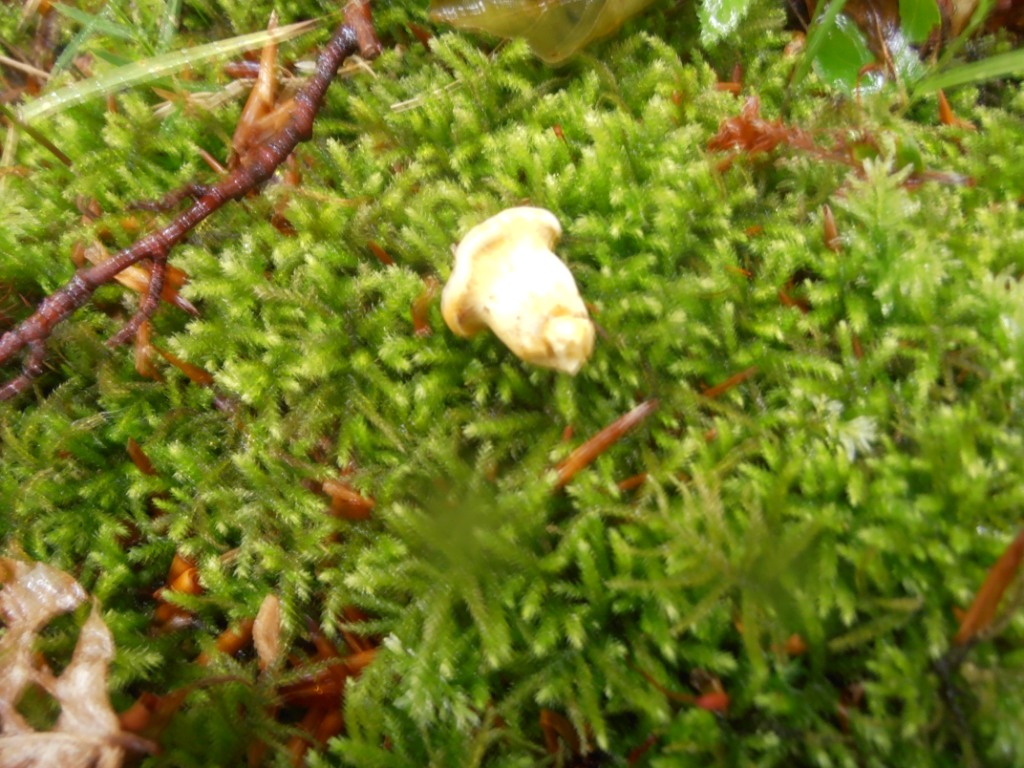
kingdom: Fungi
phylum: Basidiomycota
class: Agaricomycetes
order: Cantharellales
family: Hydnaceae
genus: Cantharellus
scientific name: Cantharellus cibarius
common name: almindelig kantarel
